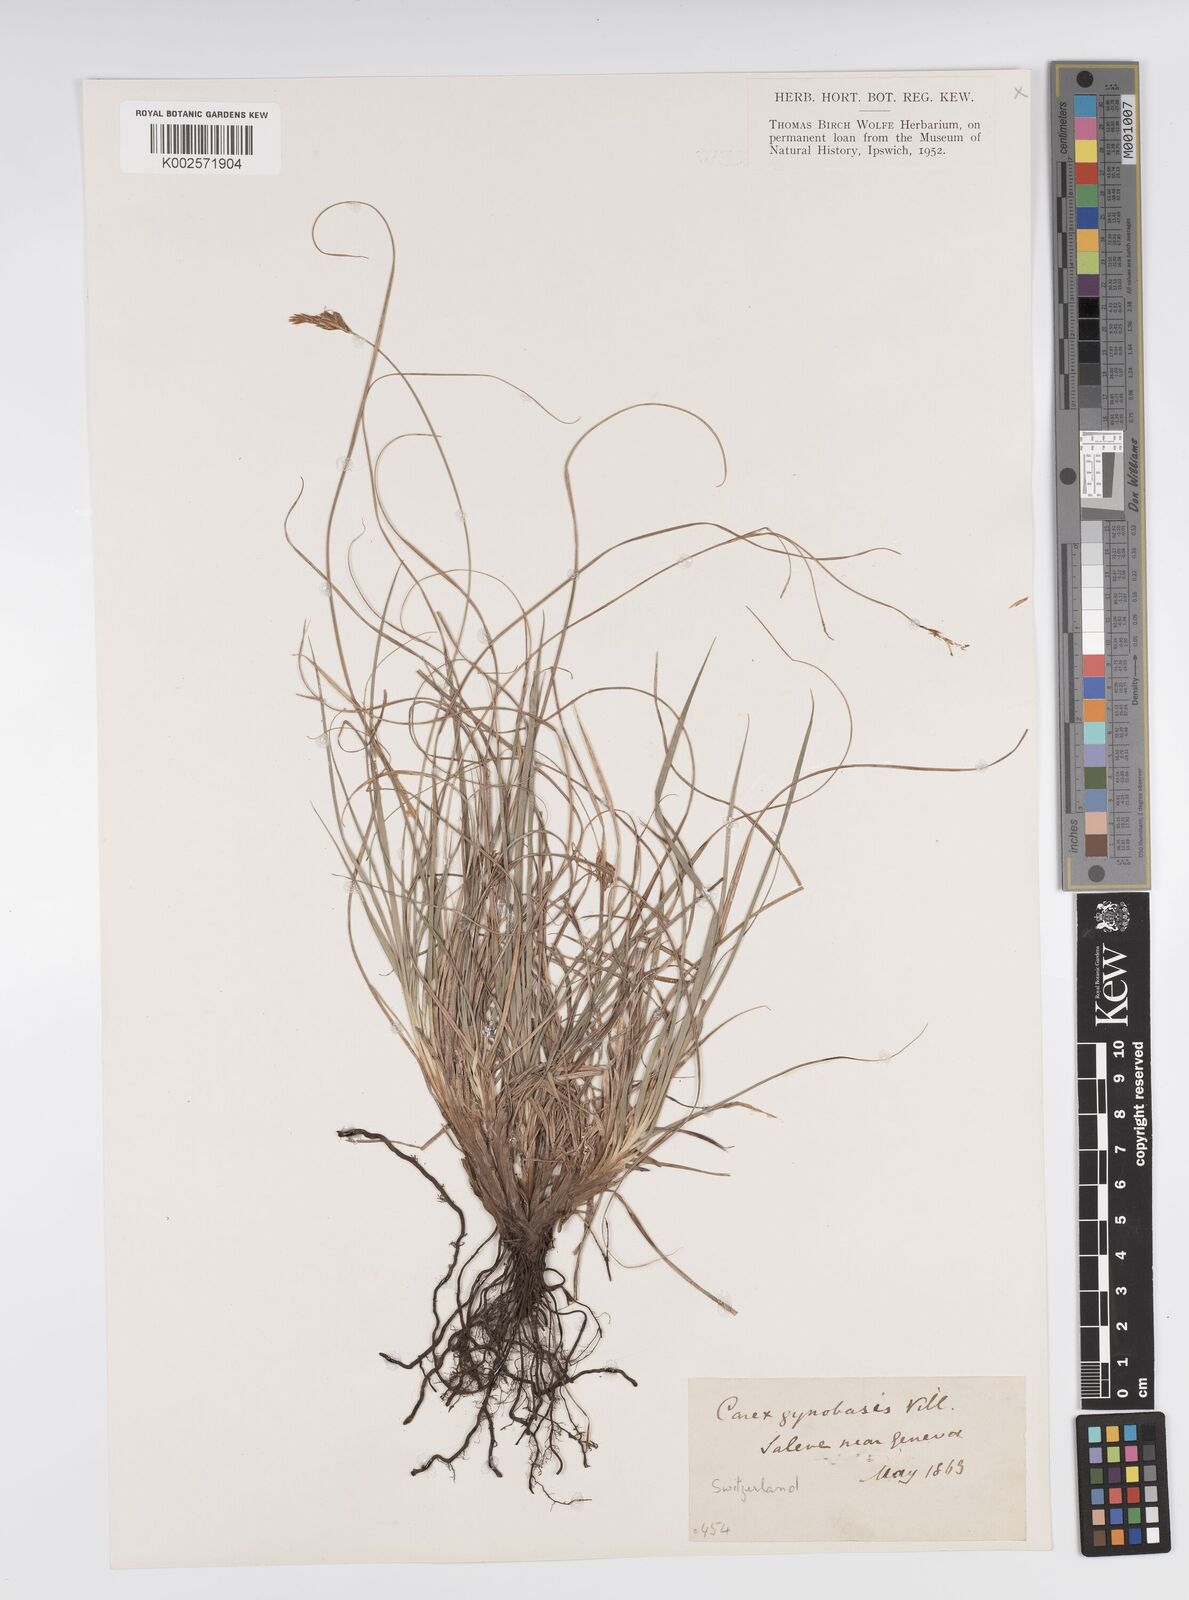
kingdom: Plantae
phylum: Tracheophyta
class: Liliopsida
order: Poales
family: Cyperaceae
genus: Carex
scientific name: Carex halleriana
